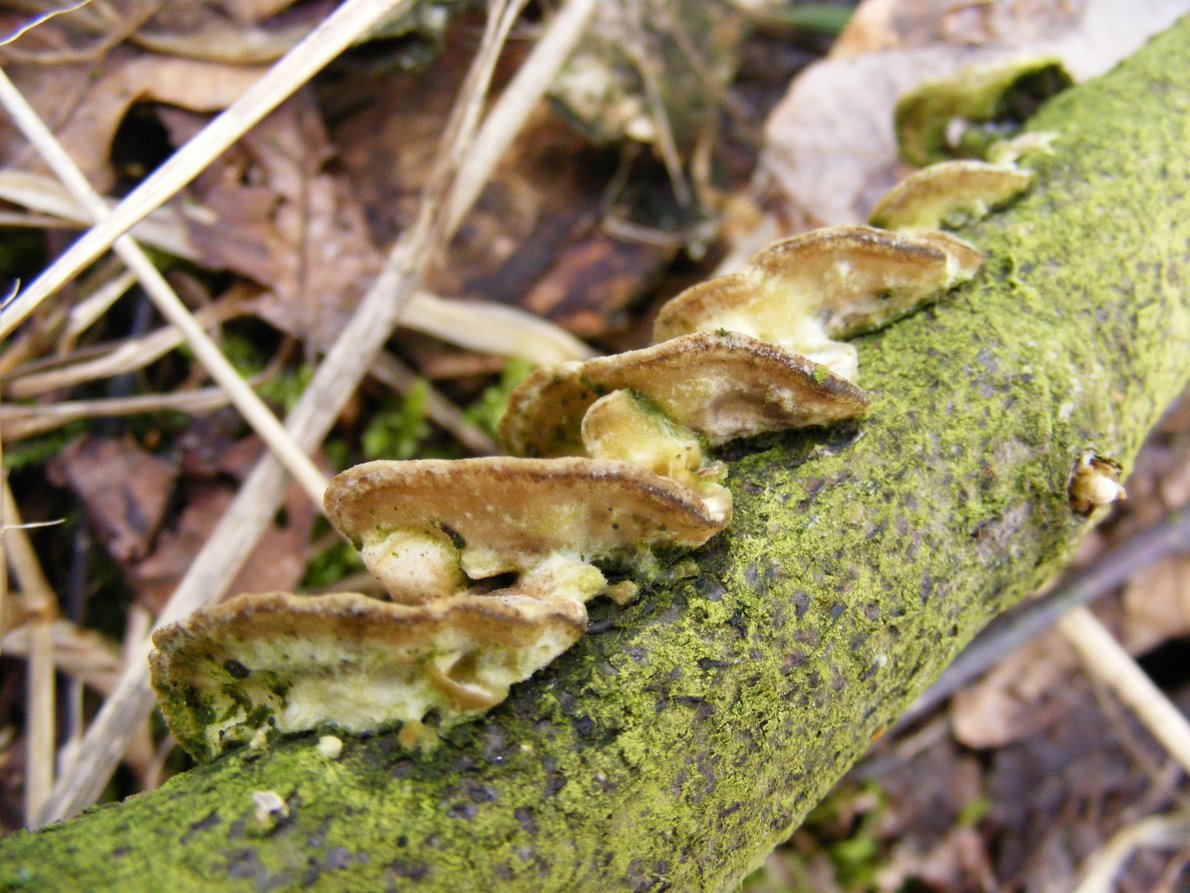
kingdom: Fungi
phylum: Basidiomycota
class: Agaricomycetes
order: Polyporales
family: Phanerochaetaceae
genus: Bjerkandera
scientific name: Bjerkandera adusta
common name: sveden sodporesvamp
